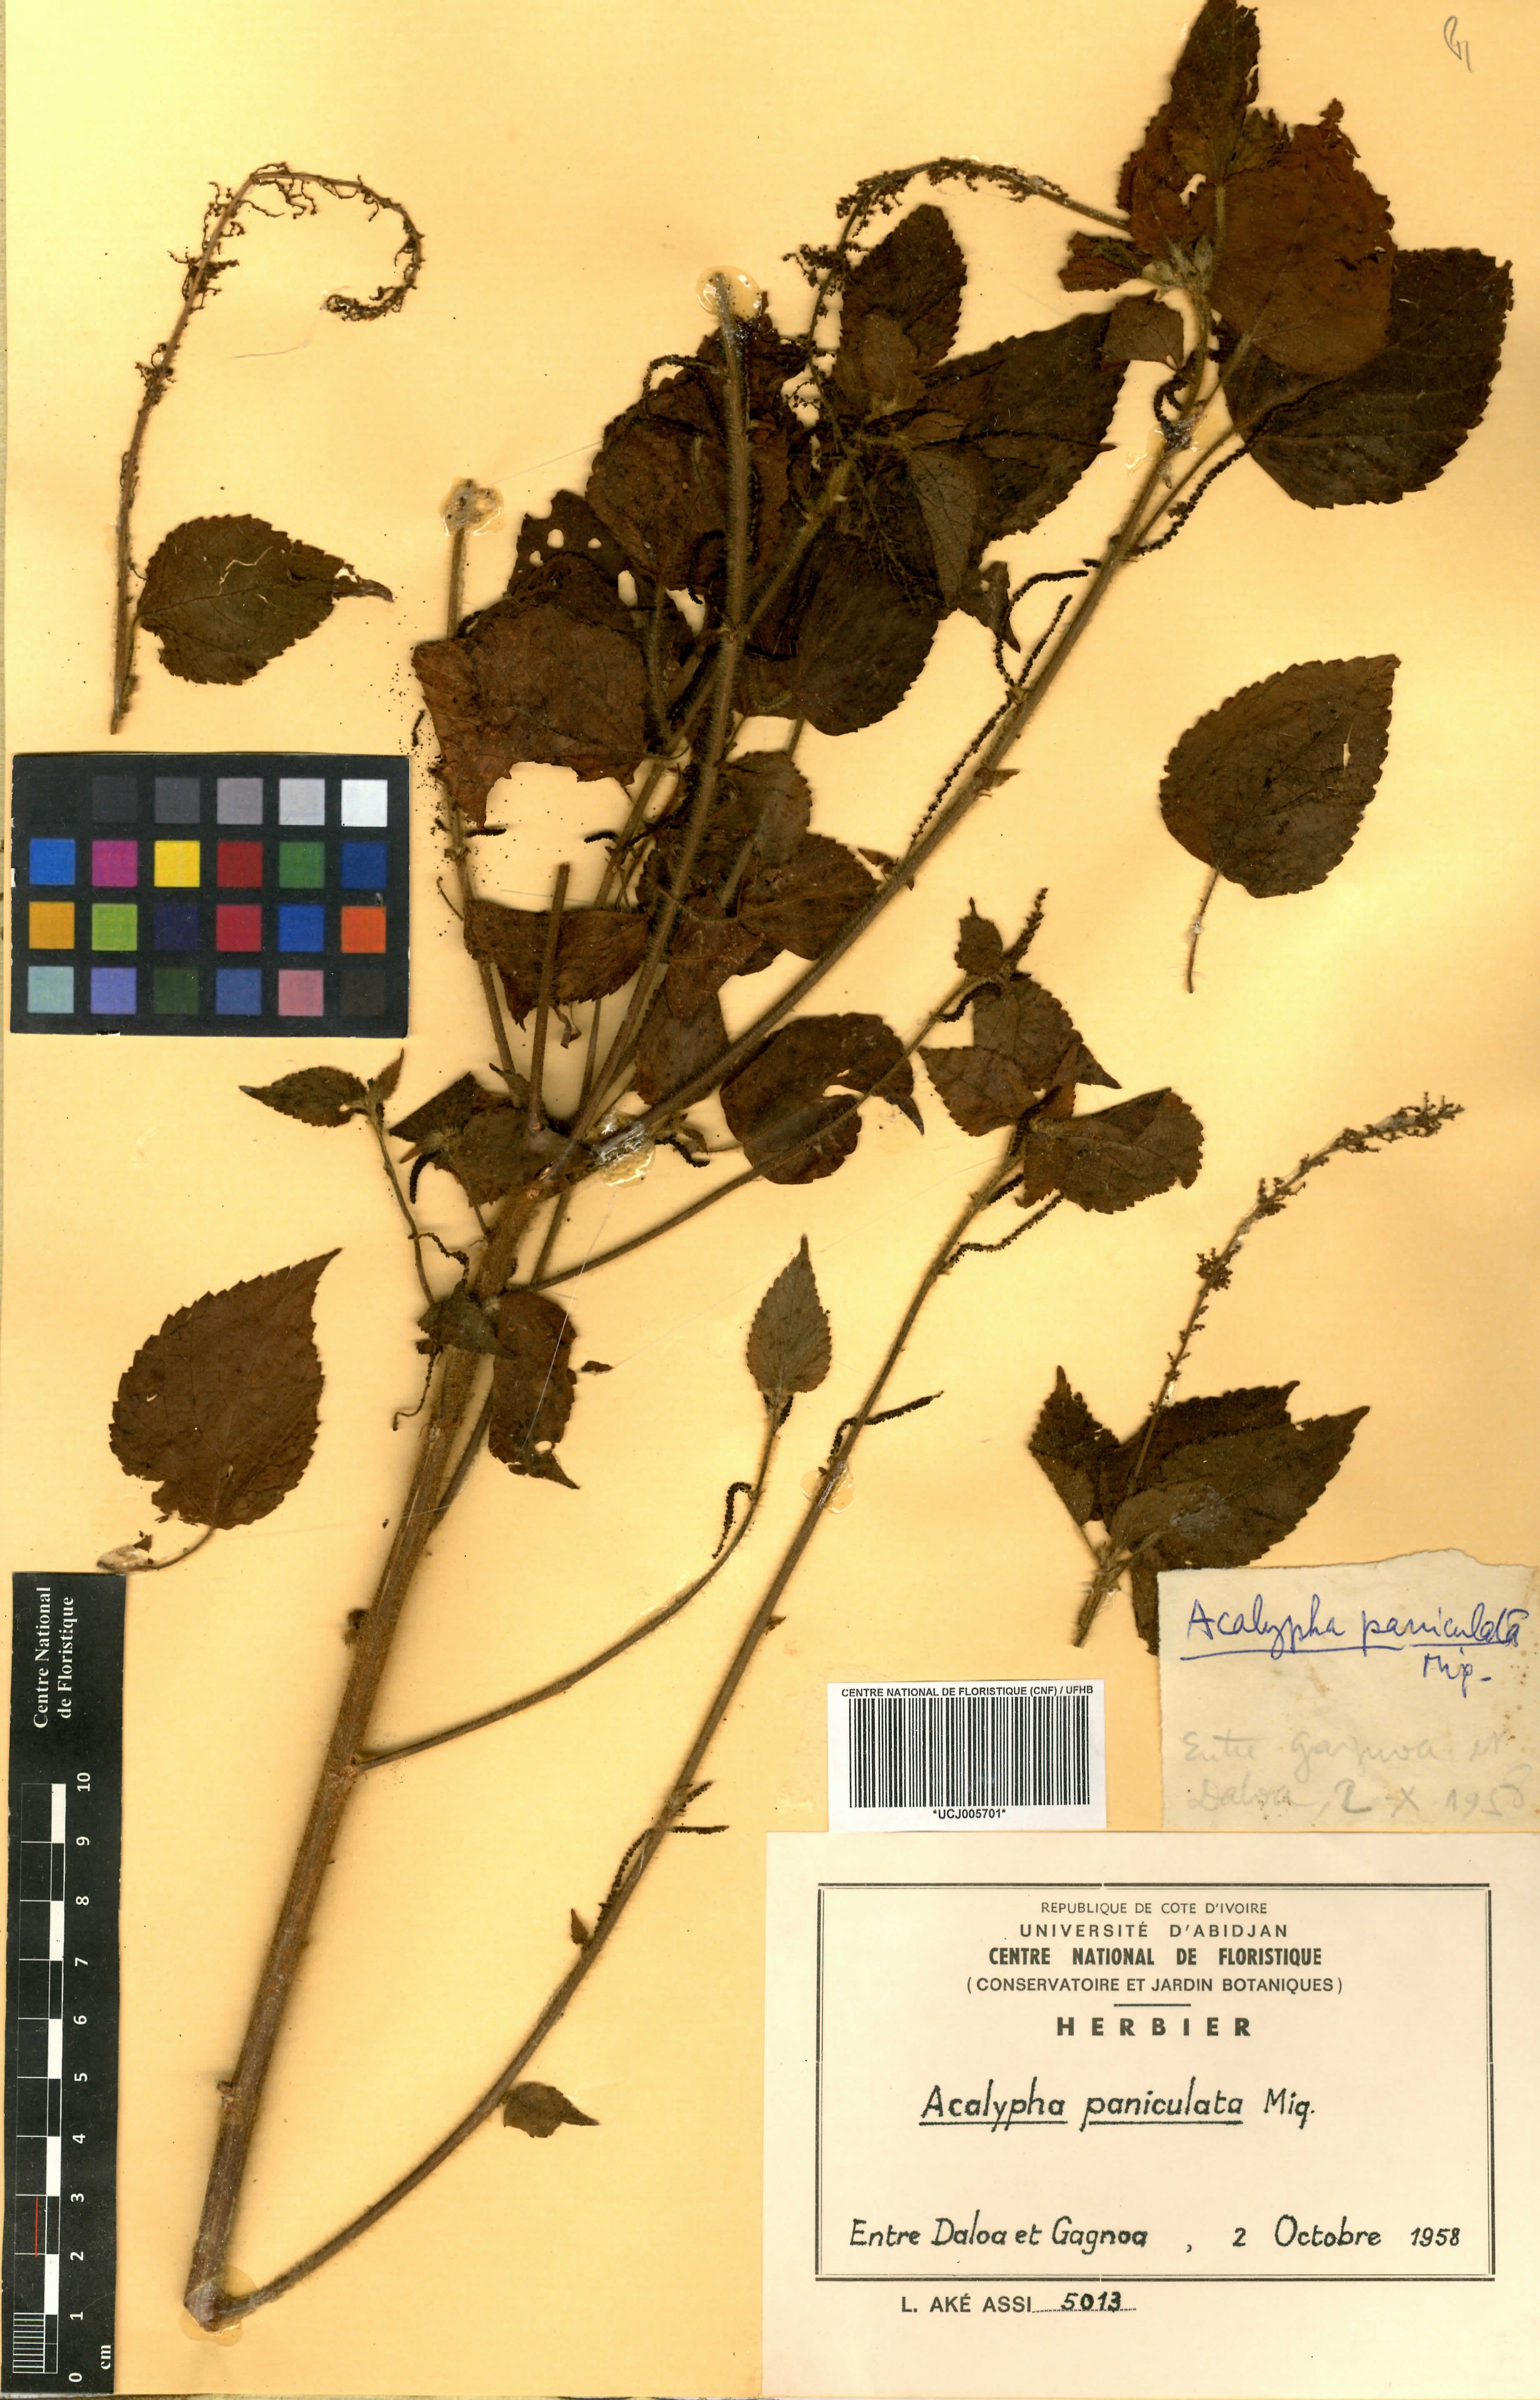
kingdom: Plantae
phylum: Tracheophyta
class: Magnoliopsida
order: Malpighiales
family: Euphorbiaceae
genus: Acalypha
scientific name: Acalypha paniculata
